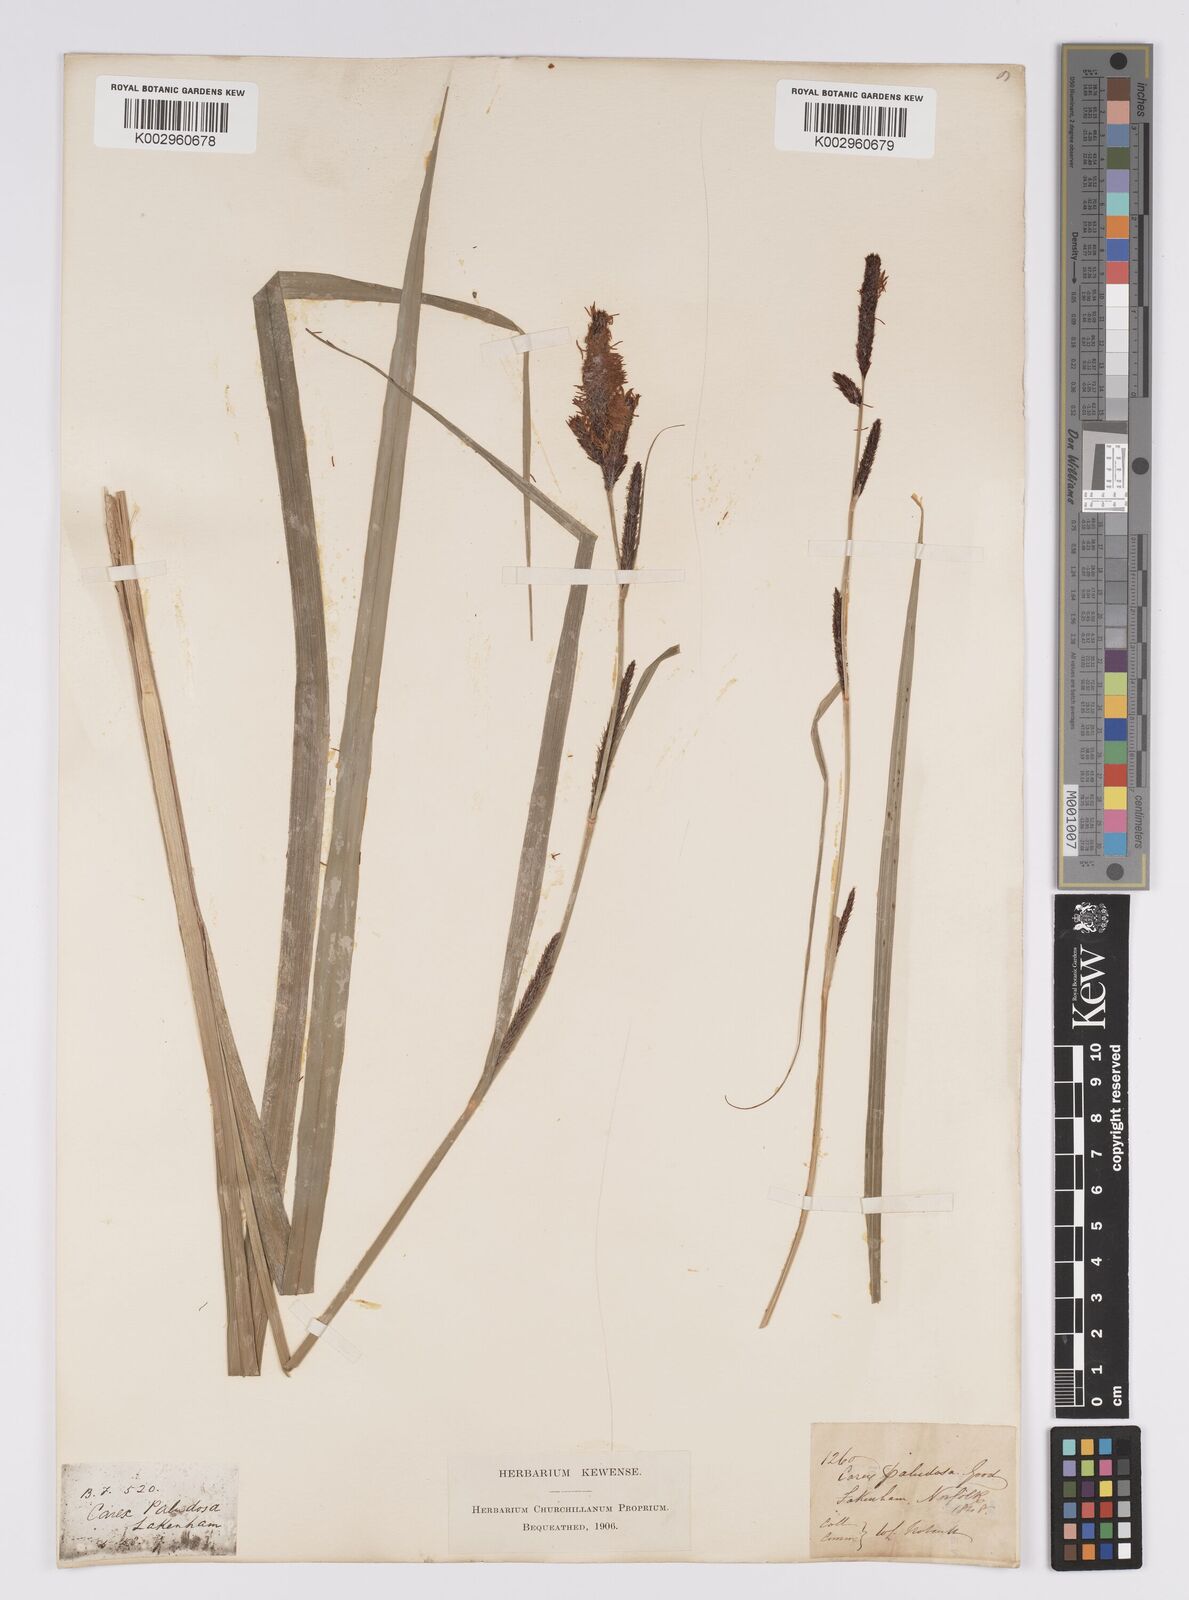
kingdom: Plantae
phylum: Tracheophyta
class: Liliopsida
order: Poales
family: Cyperaceae
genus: Carex
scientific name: Carex acutiformis
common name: Lesser pond-sedge
